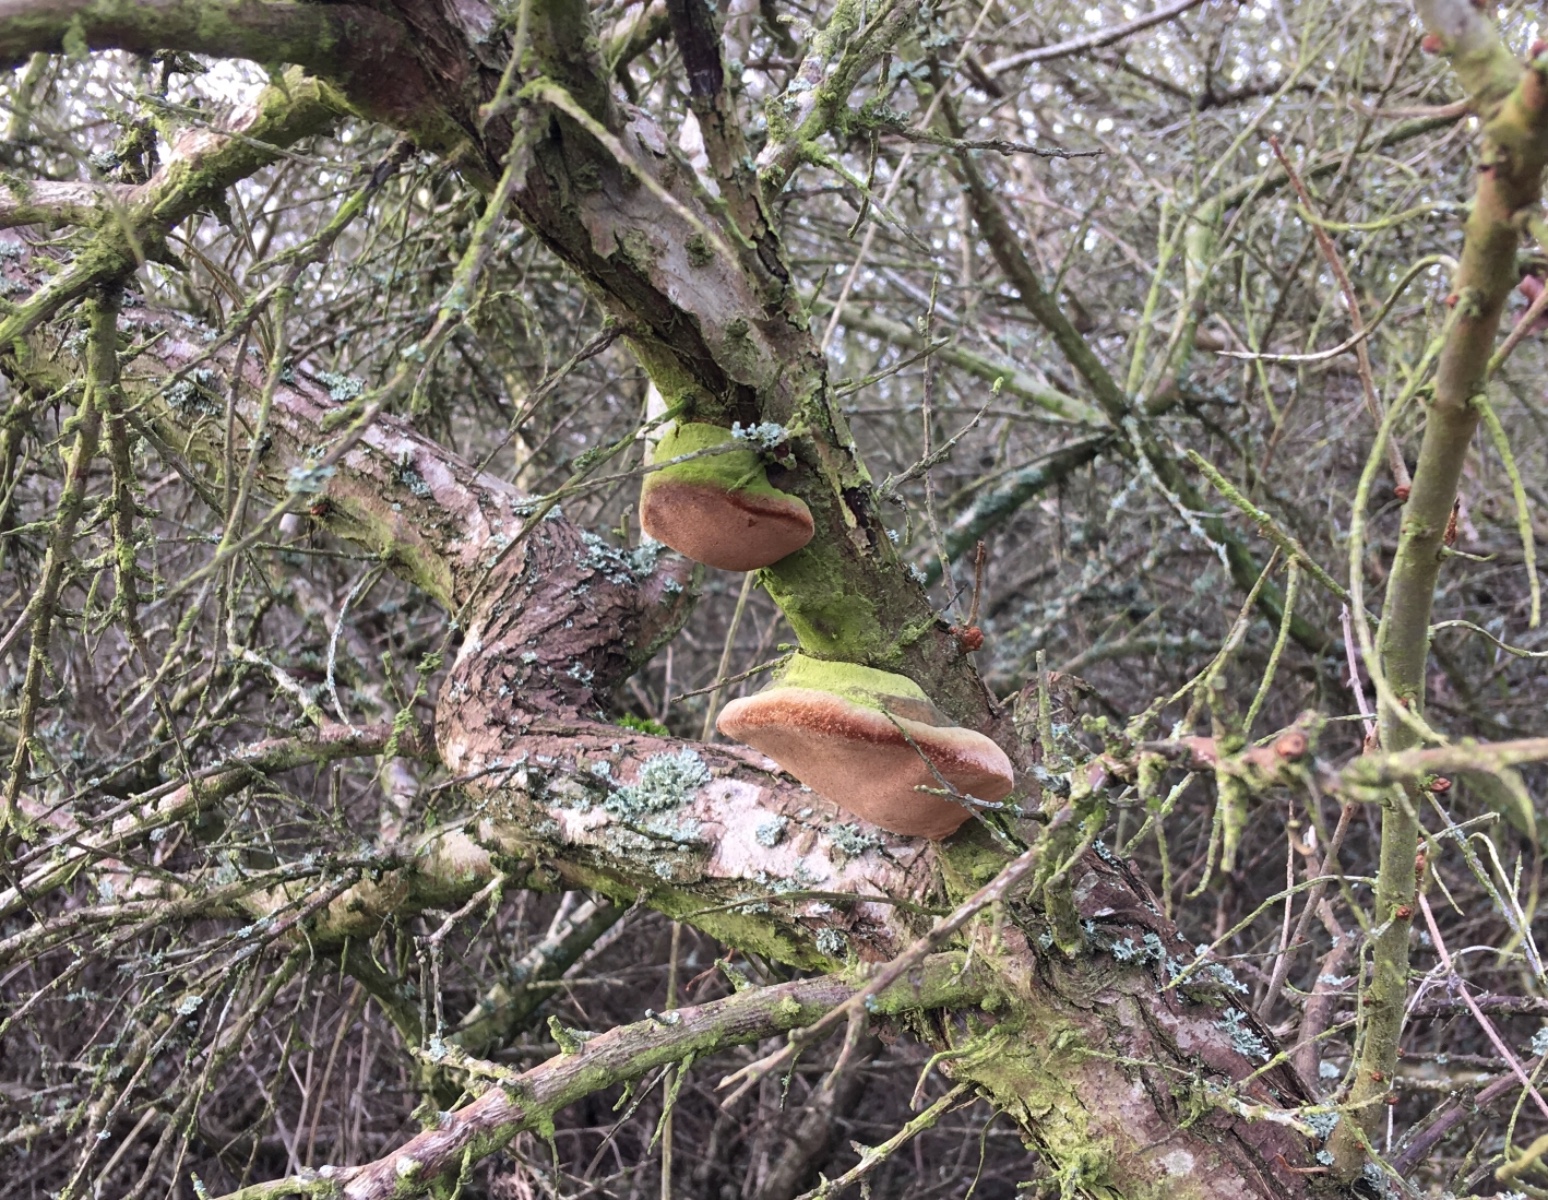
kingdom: Fungi
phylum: Basidiomycota
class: Agaricomycetes
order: Hymenochaetales
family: Hymenochaetaceae
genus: Fomitiporia
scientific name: Fomitiporia hippophaeicola
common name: havtorn-ildporesvamp
